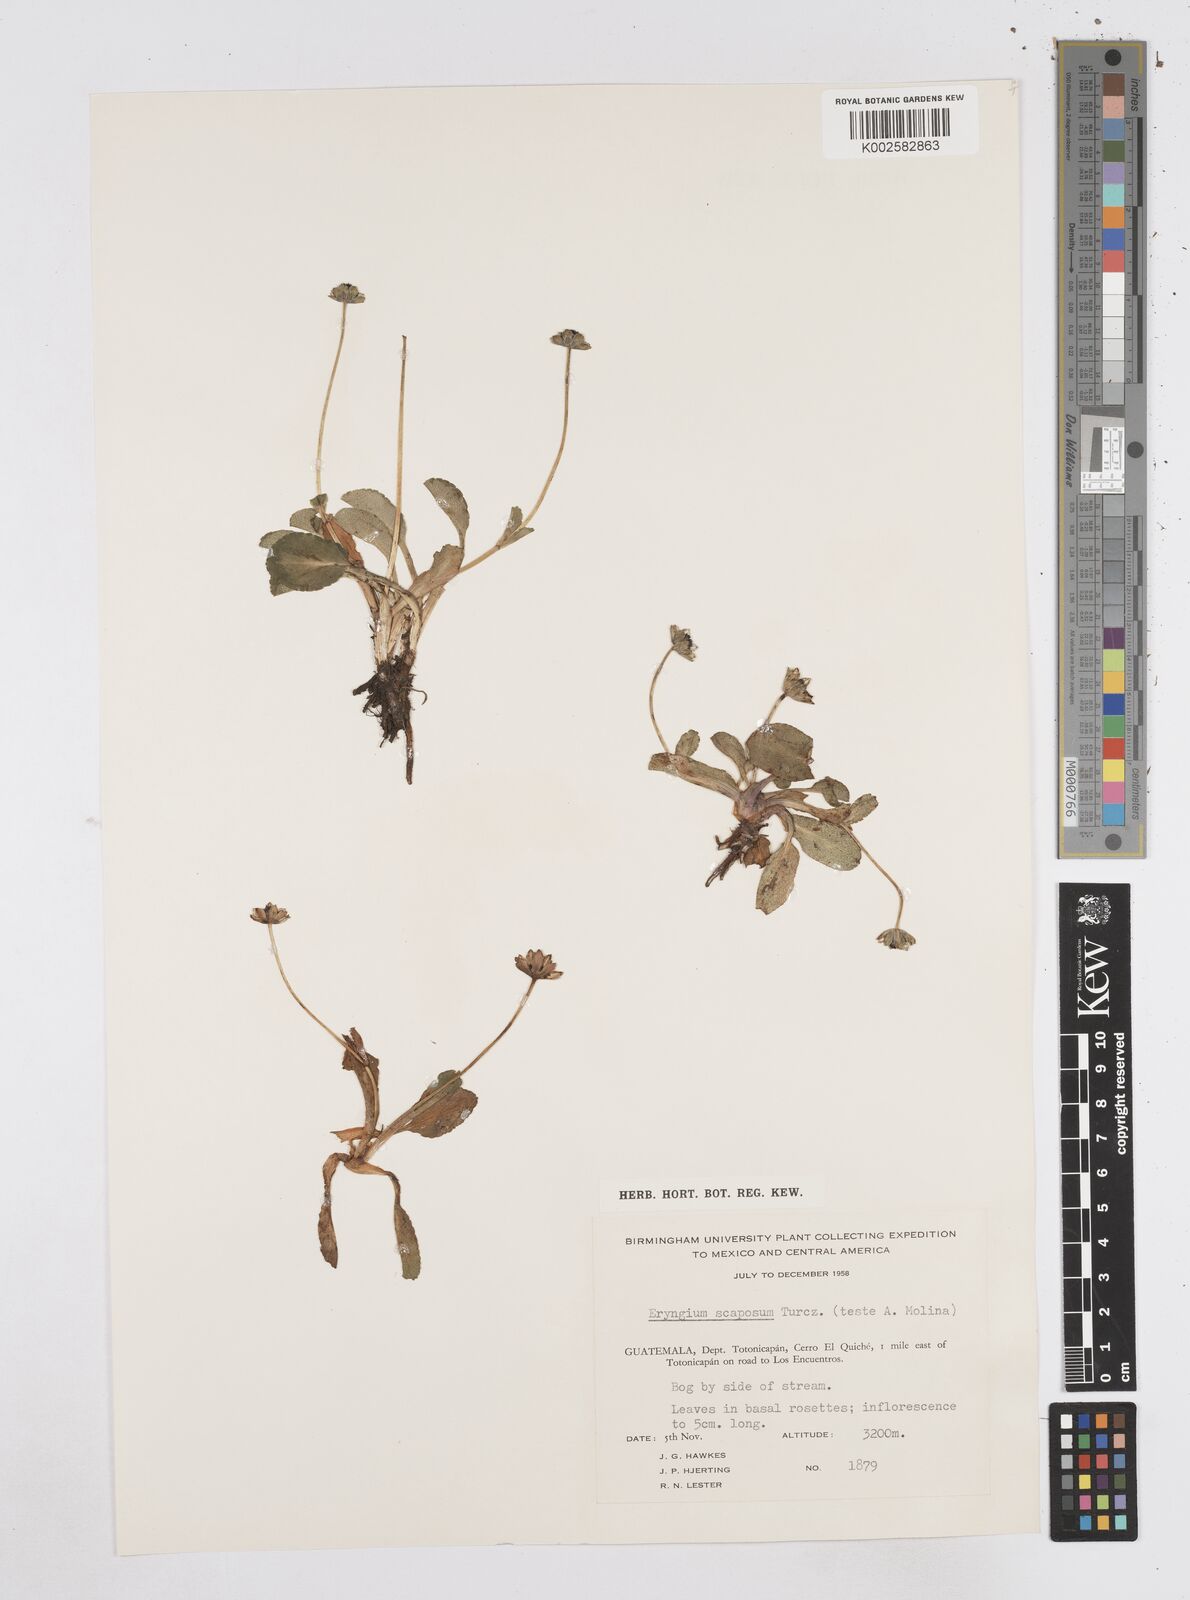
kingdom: Plantae
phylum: Tracheophyta
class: Magnoliopsida
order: Apiales
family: Apiaceae
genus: Eryngium
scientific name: Eryngium scaposum
